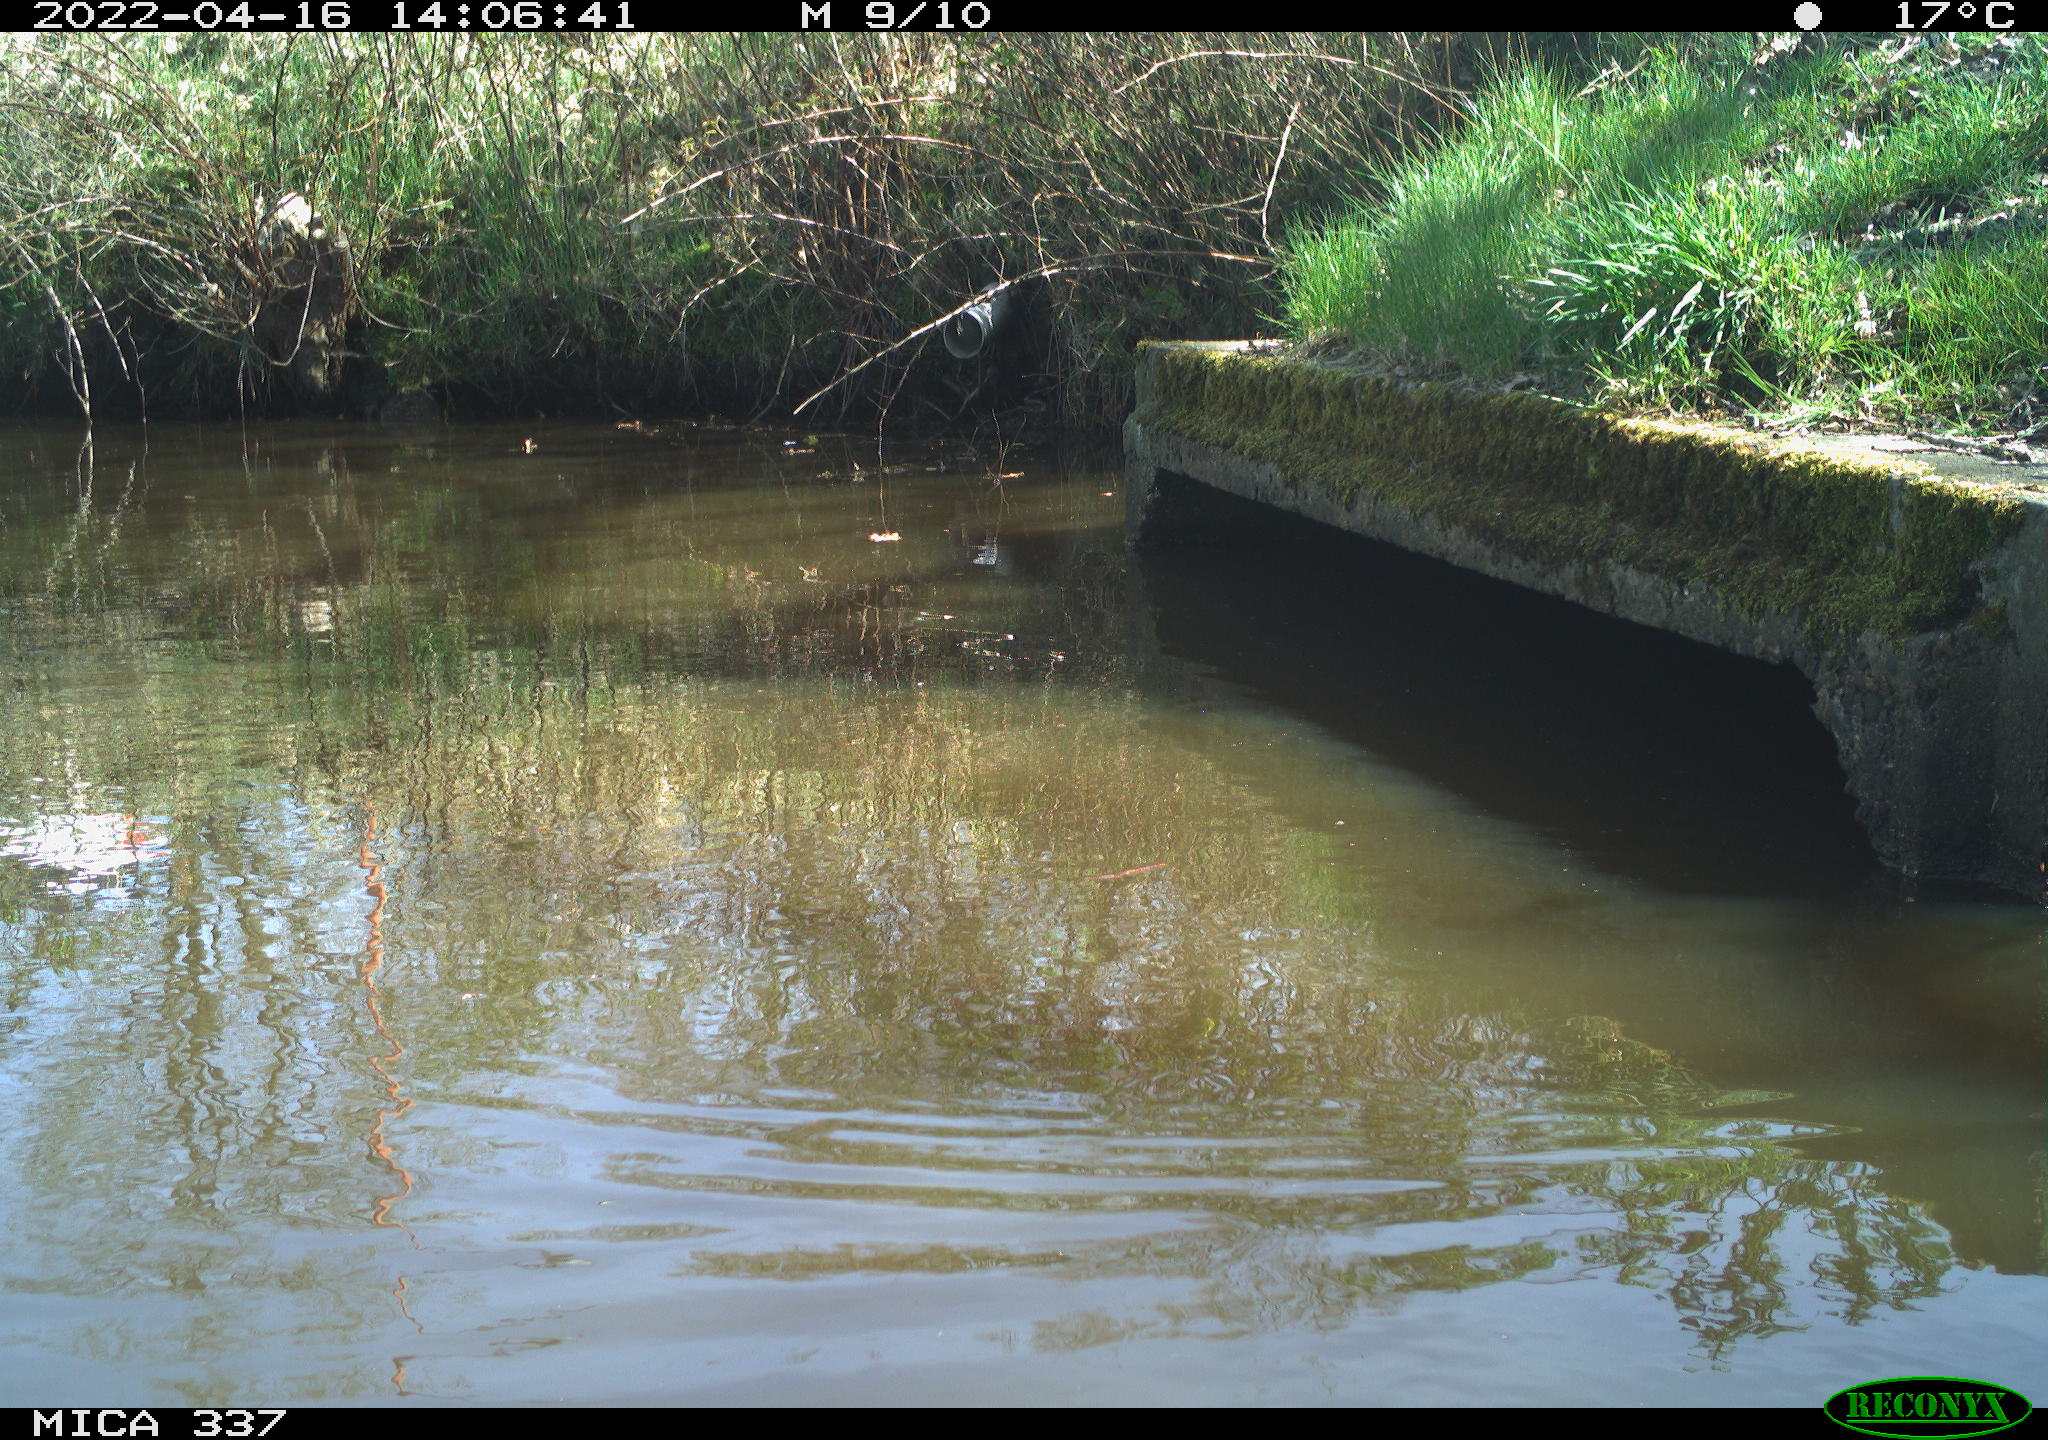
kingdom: Animalia
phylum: Chordata
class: Aves
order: Gruiformes
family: Rallidae
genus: Gallinula
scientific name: Gallinula chloropus
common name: Common moorhen
